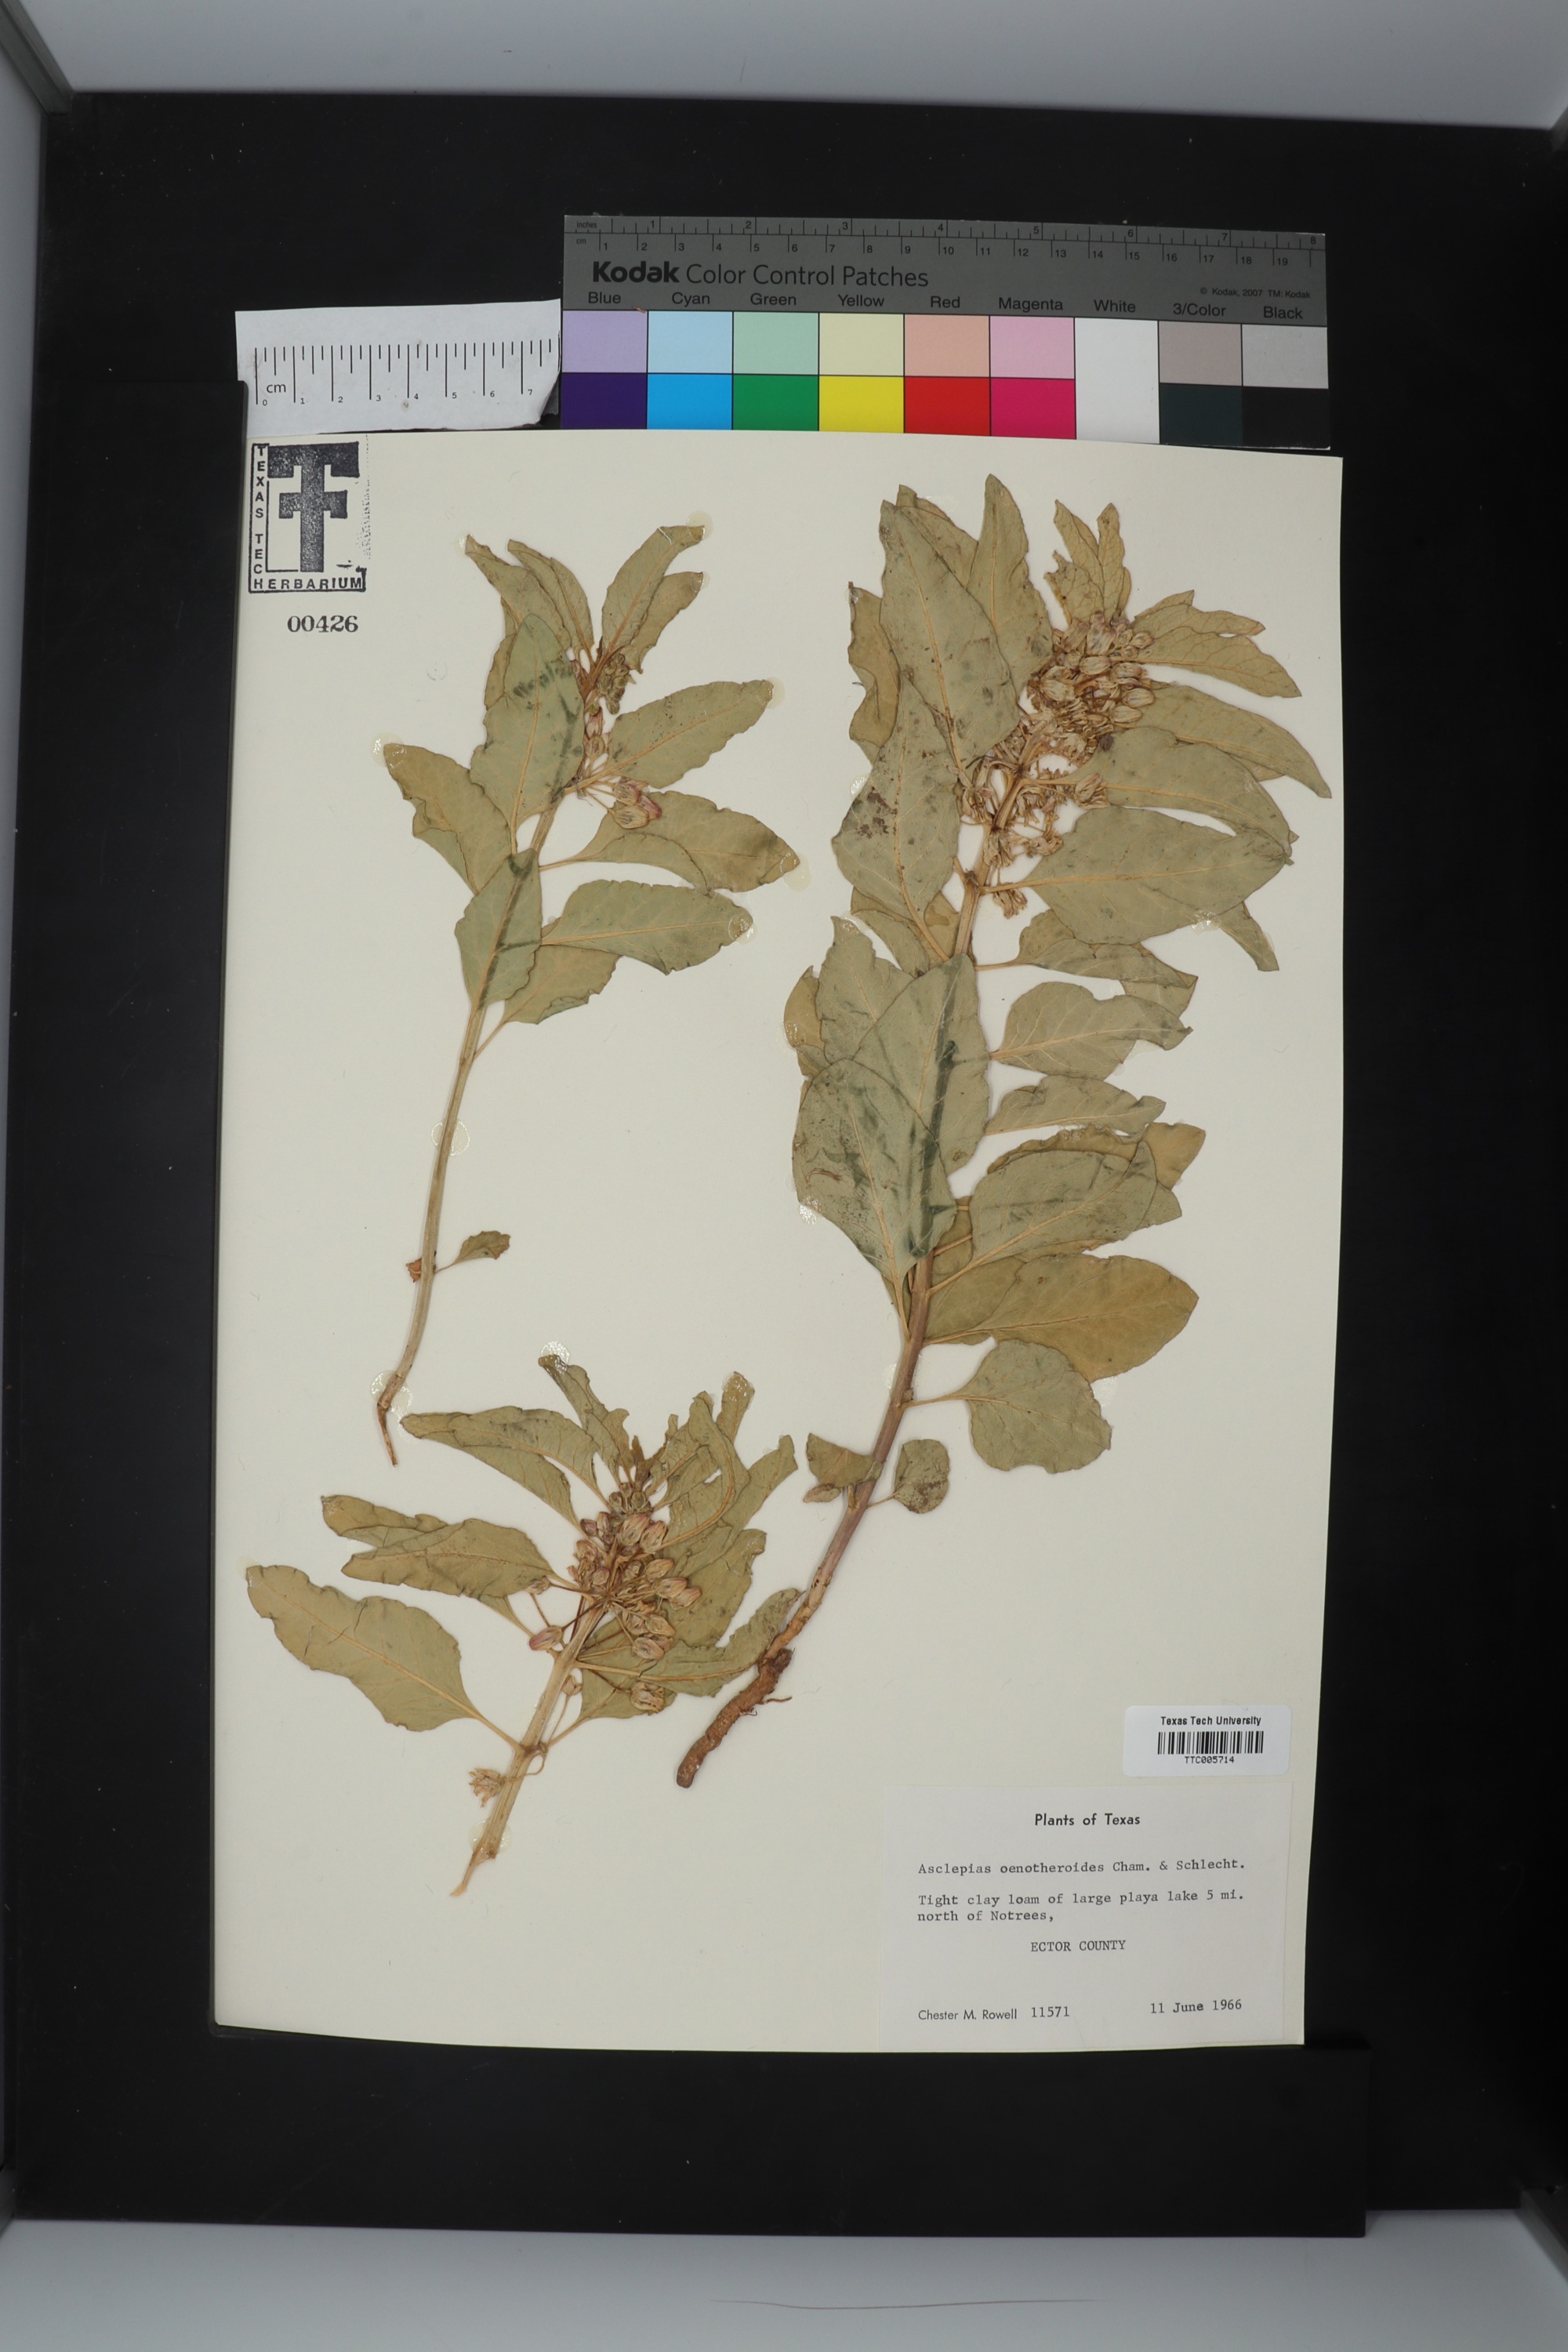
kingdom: Plantae
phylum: Tracheophyta
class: Magnoliopsida
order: Gentianales
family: Apocynaceae
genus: Asclepias
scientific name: Asclepias oenotheroides
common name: Zizotes milkweed
